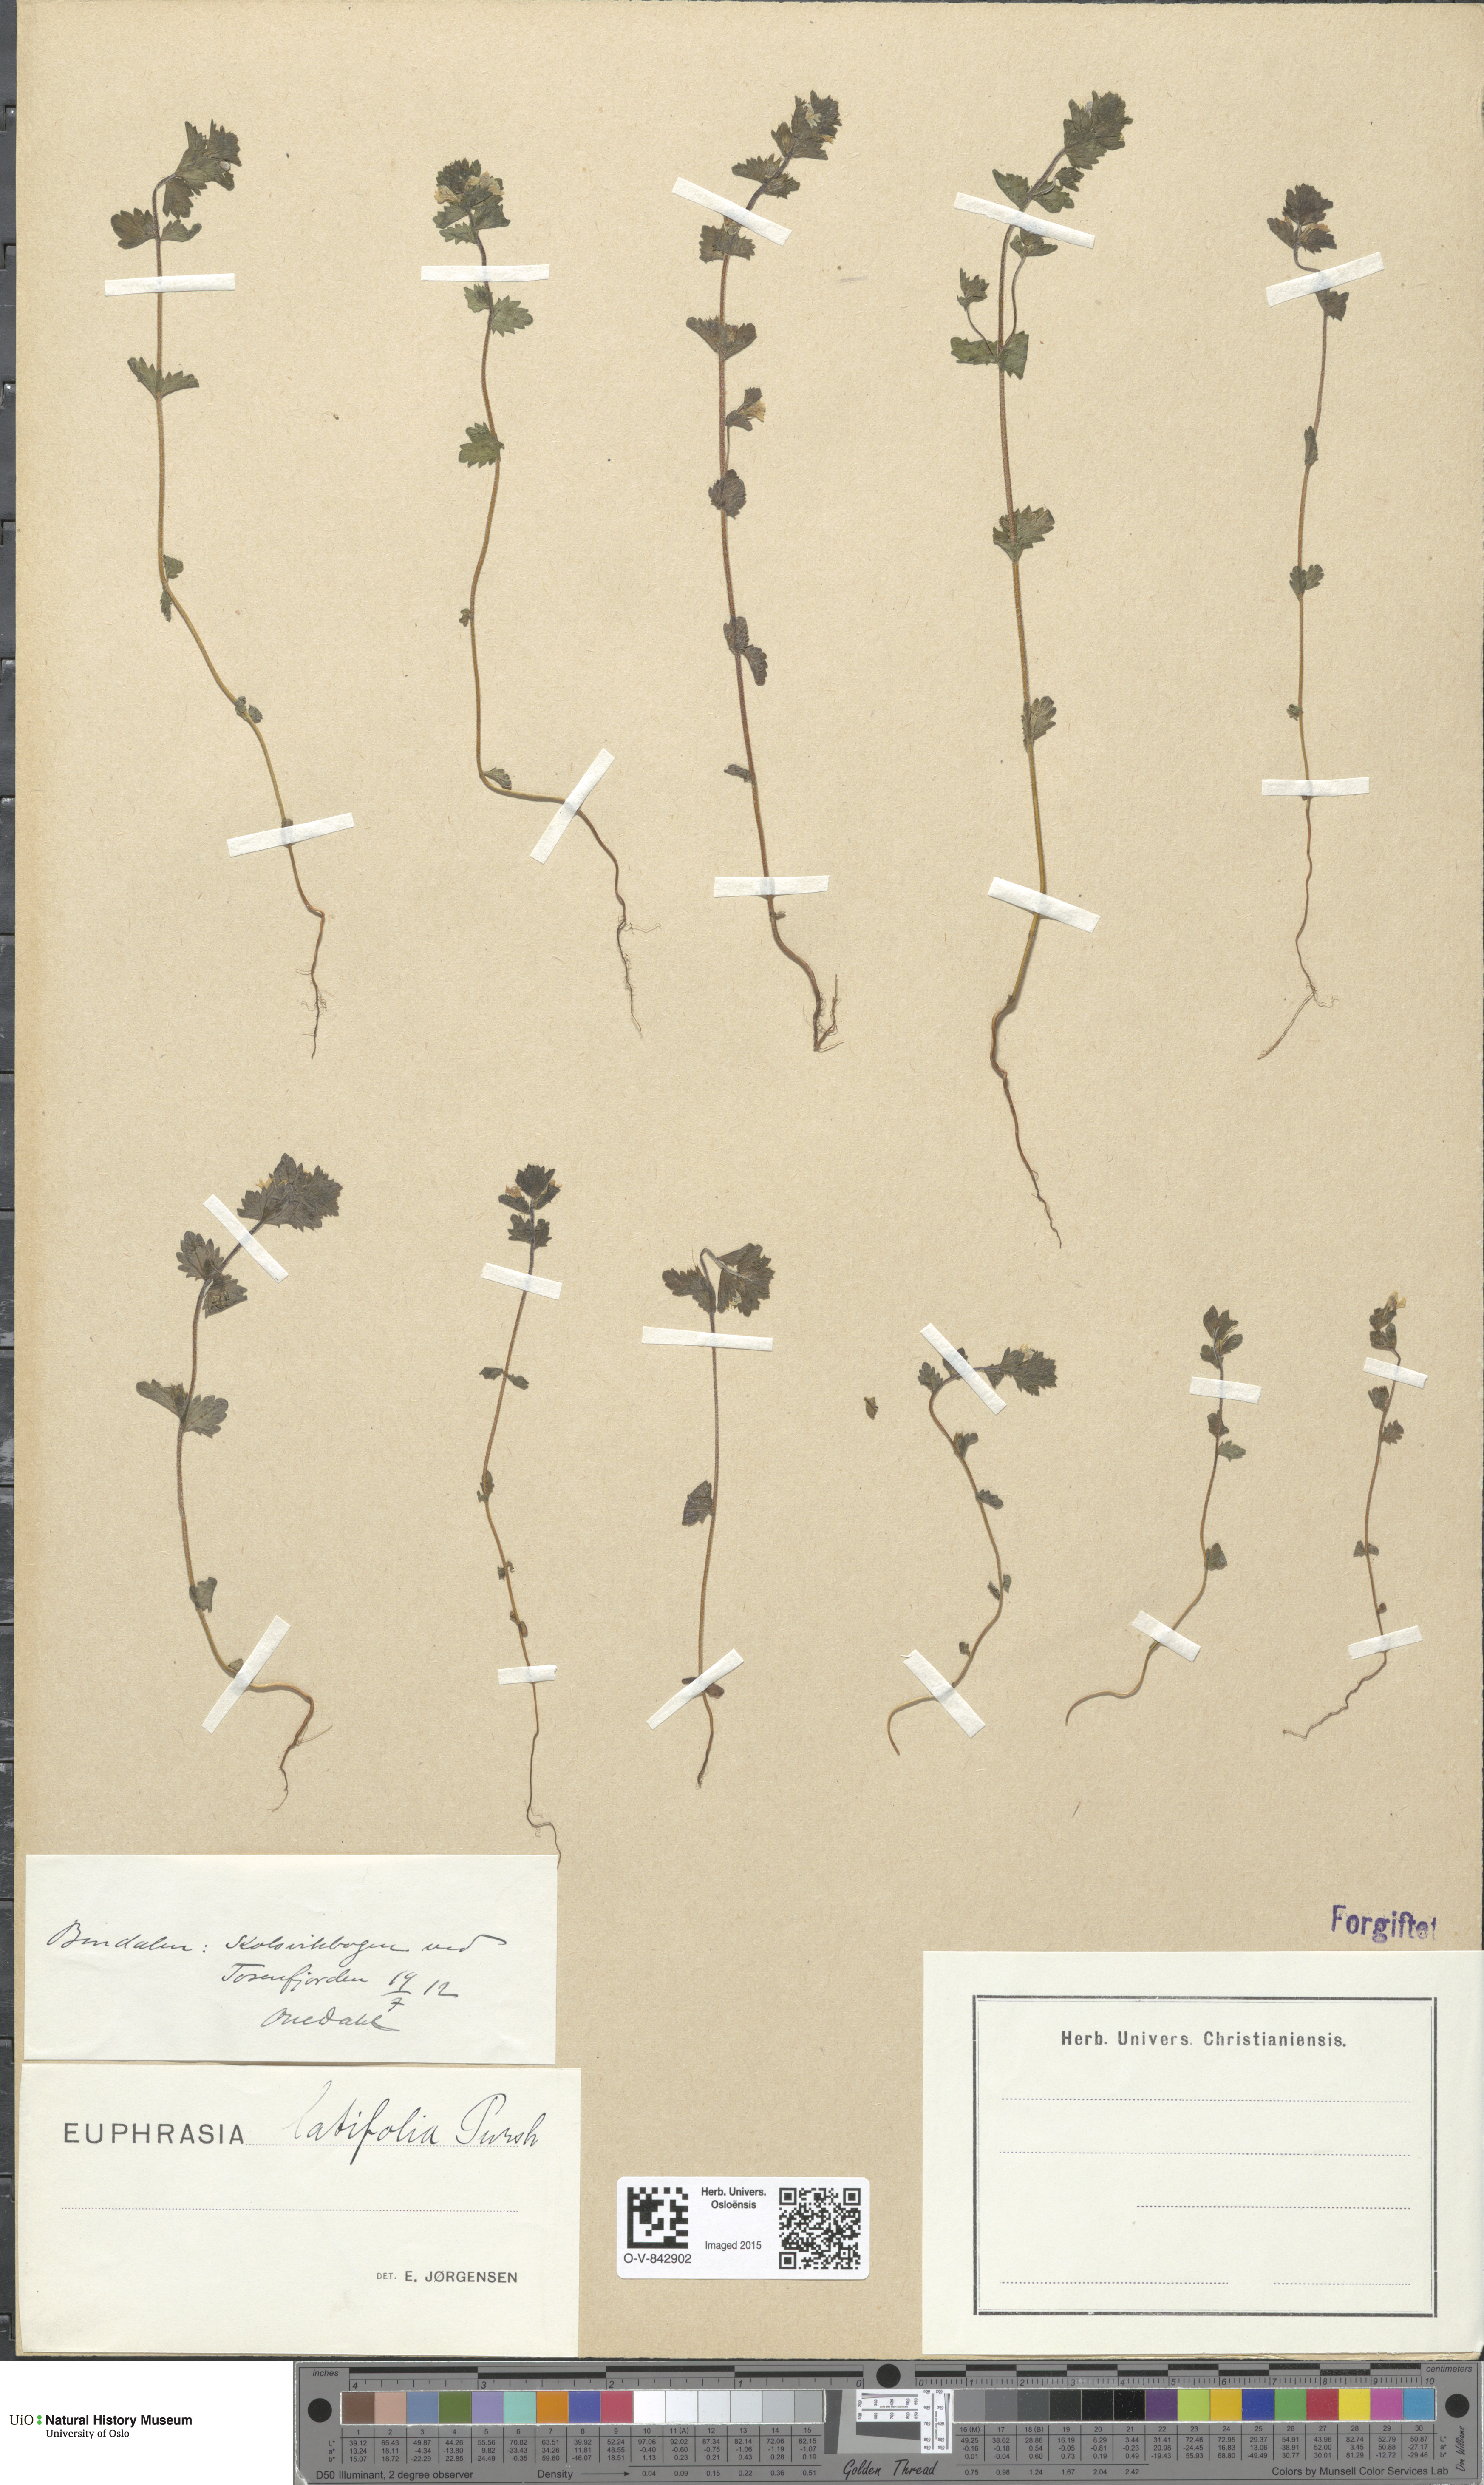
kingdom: Plantae
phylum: Tracheophyta
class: Magnoliopsida
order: Lamiales
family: Orobanchaceae
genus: Euphrasia
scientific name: Euphrasia wettsteinii
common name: Wettstein's eyebright
